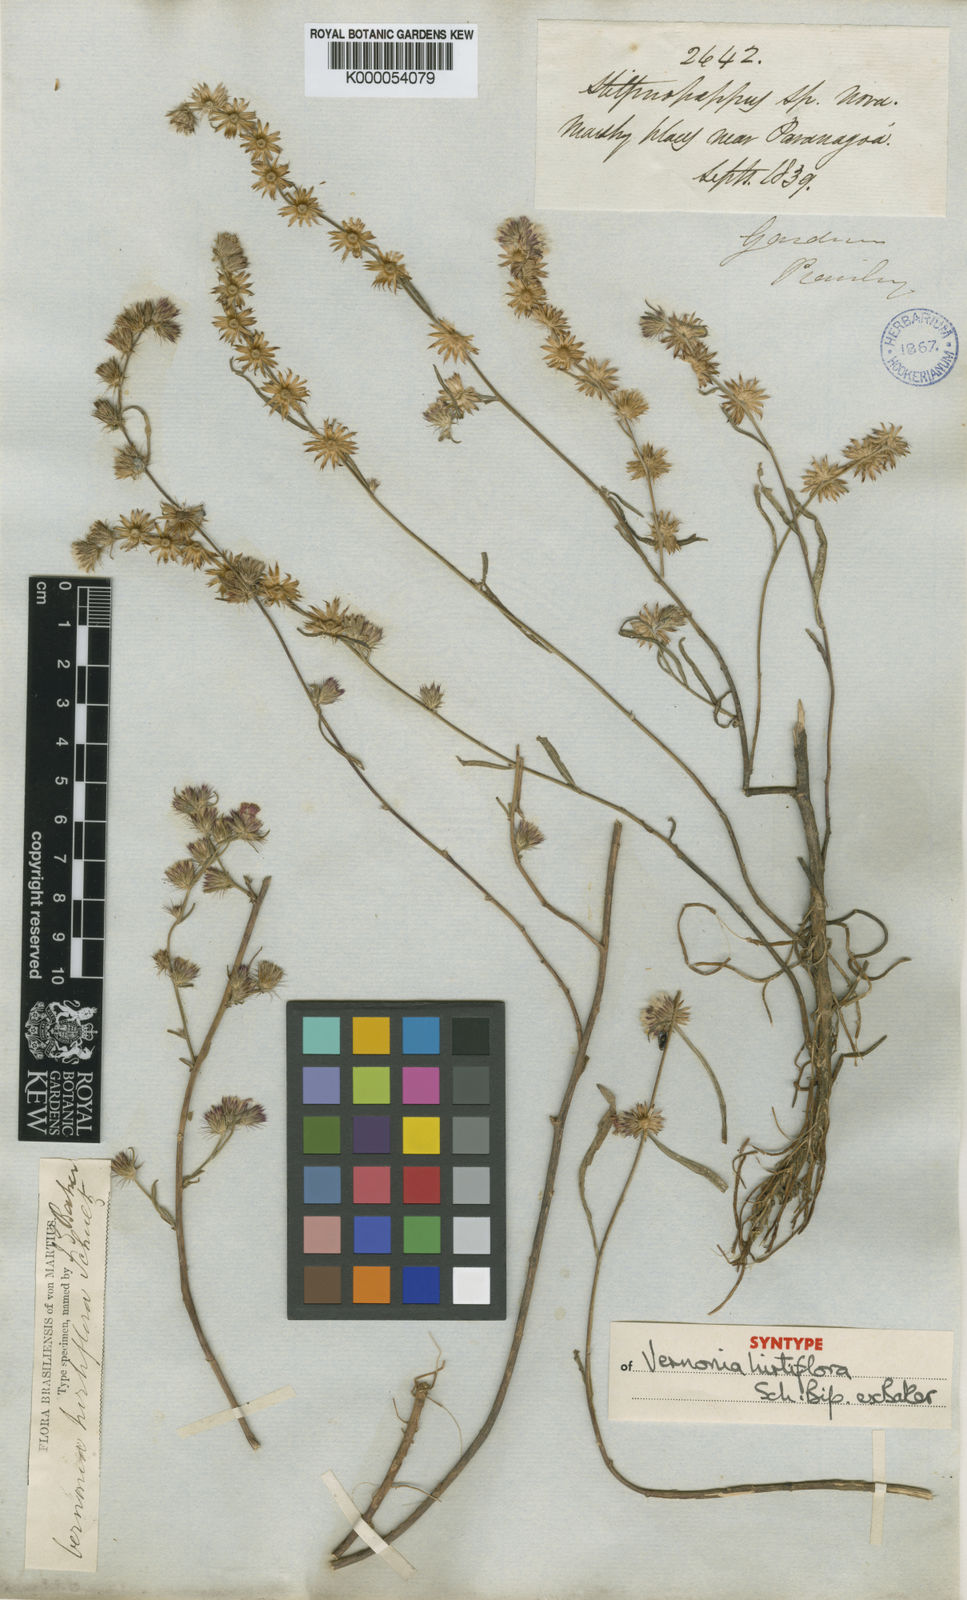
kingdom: Plantae
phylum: Tracheophyta
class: Magnoliopsida
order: Asterales
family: Asteraceae
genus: Lepidaploa
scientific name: Lepidaploa remotiflora
